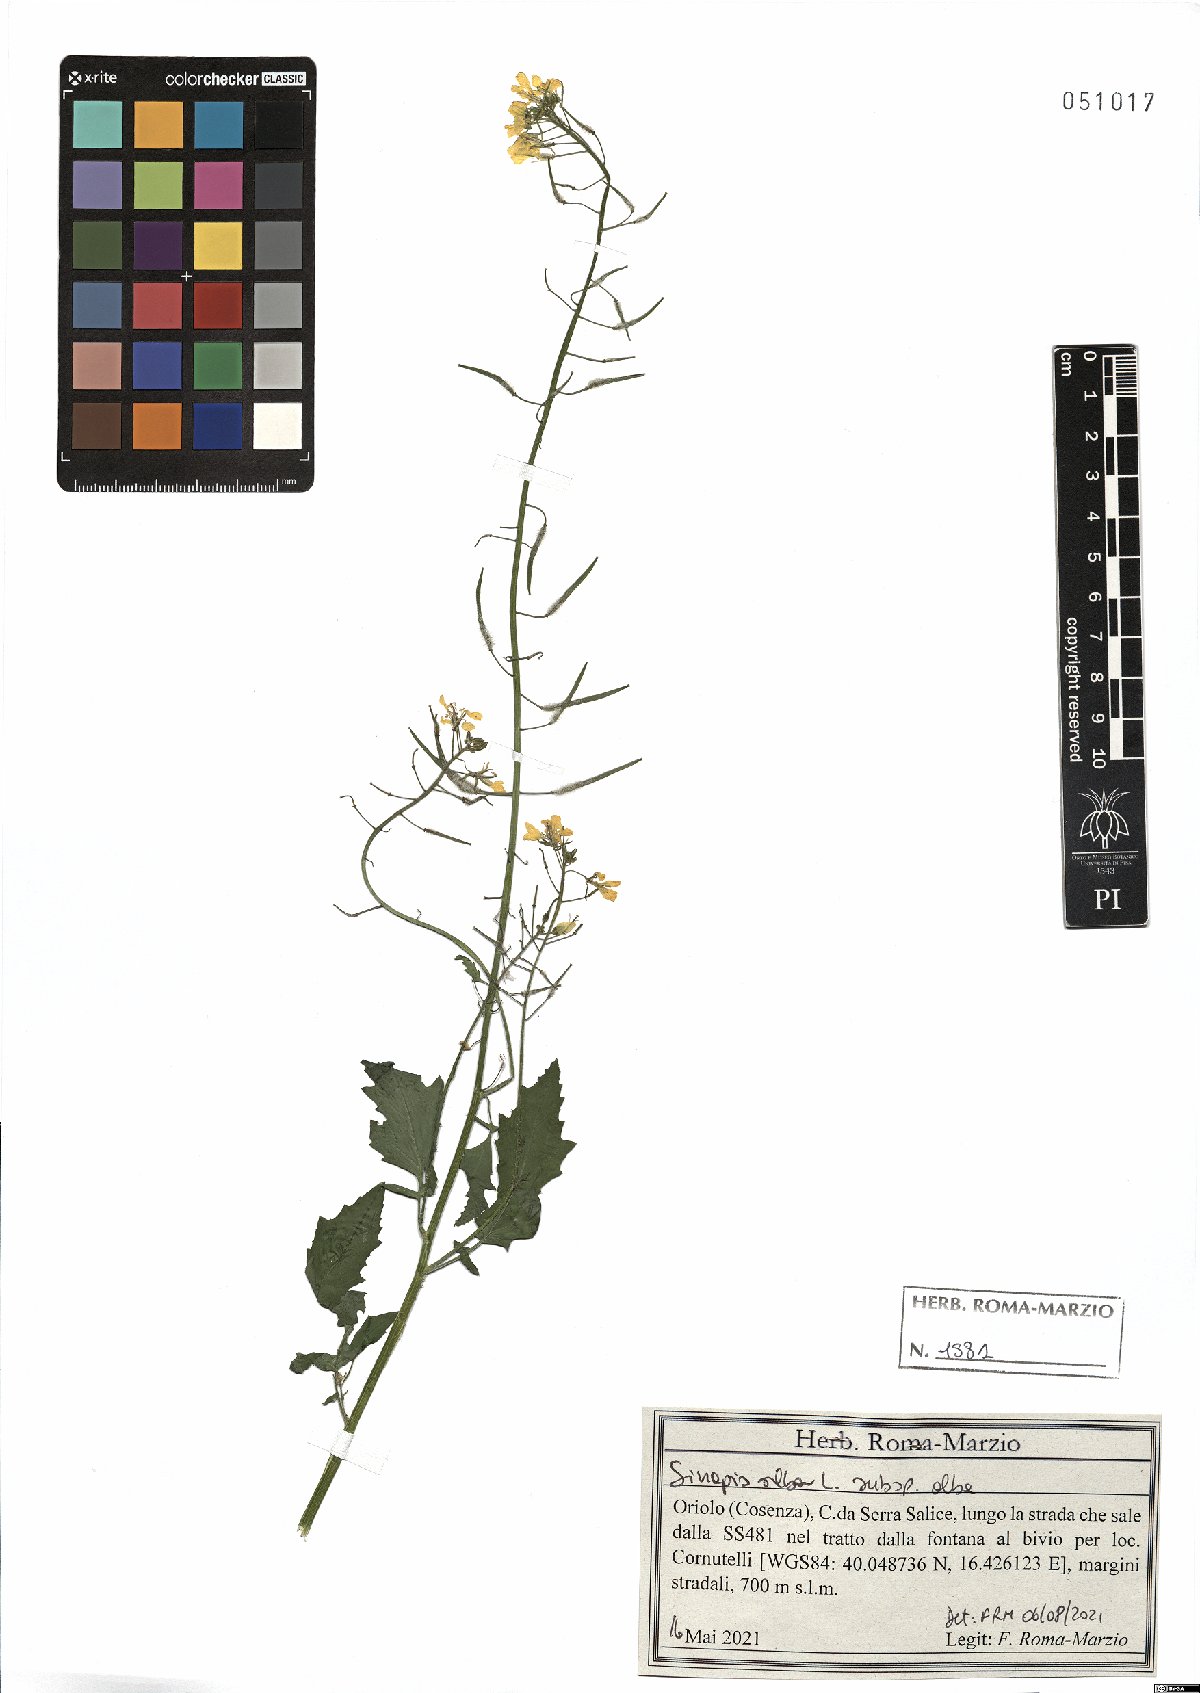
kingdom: Plantae
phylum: Tracheophyta
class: Magnoliopsida
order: Brassicales
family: Brassicaceae
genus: Sinapis
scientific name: Sinapis alba
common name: White mustard
